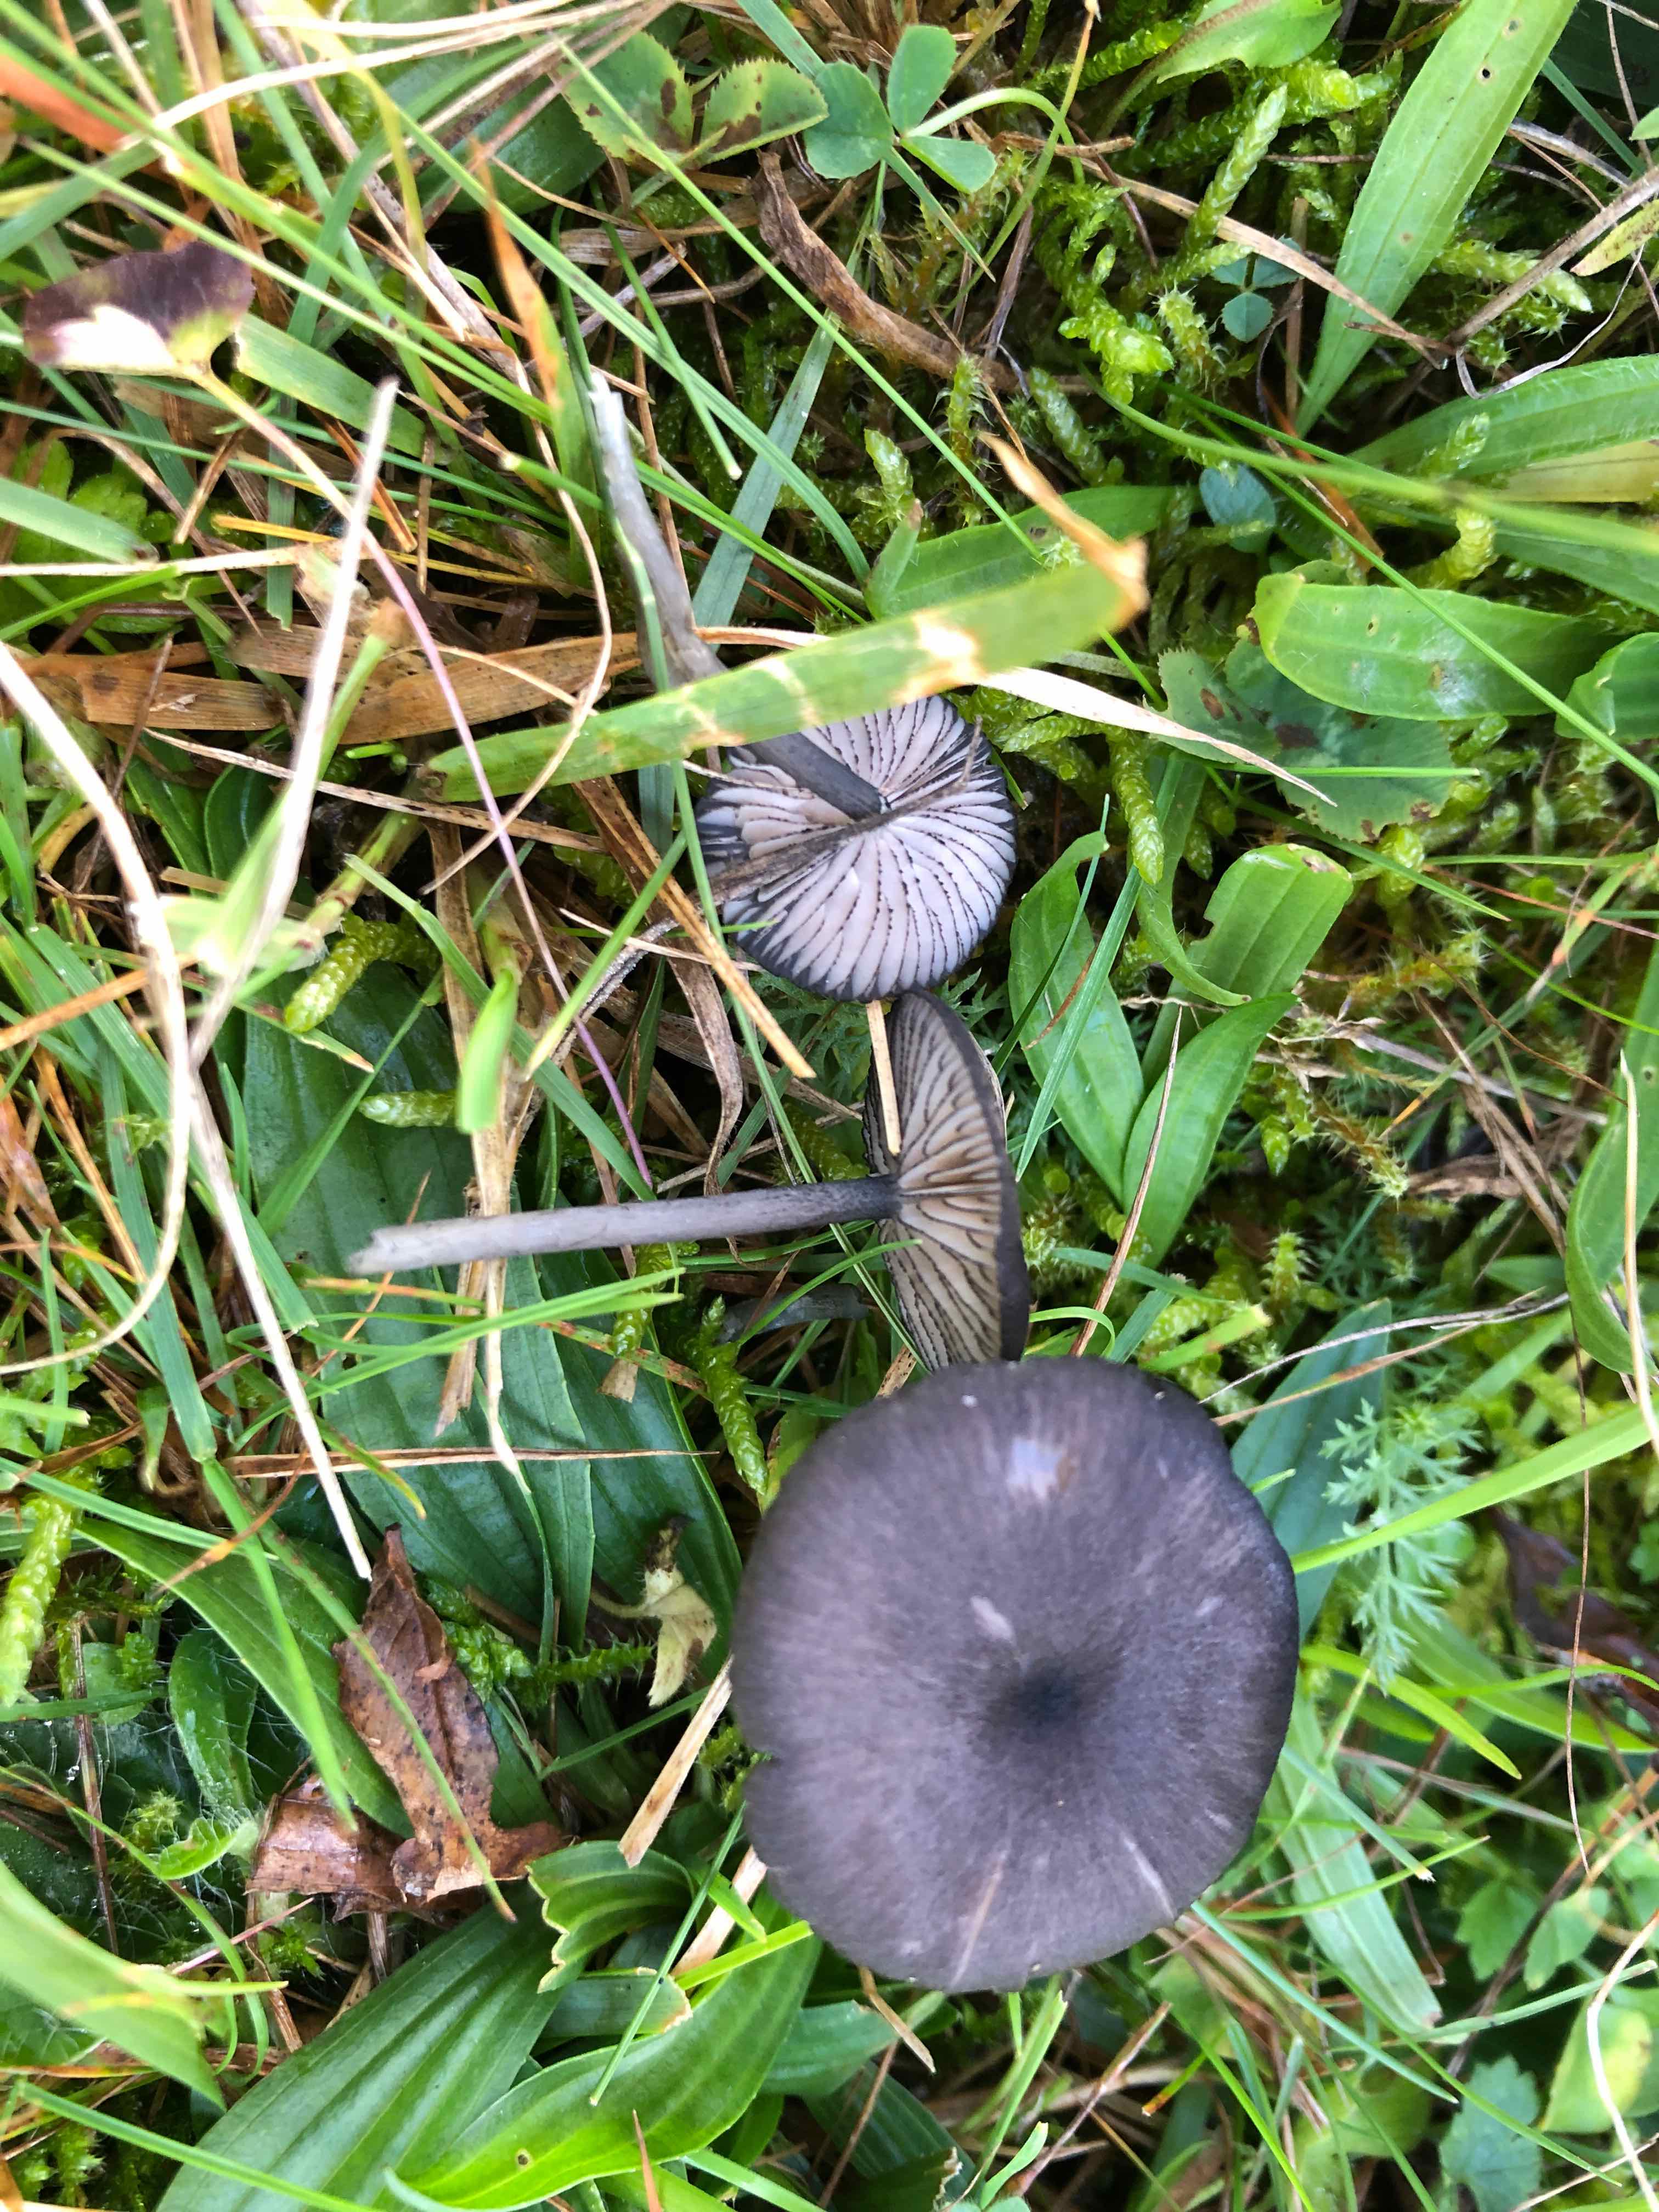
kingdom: Fungi
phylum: Basidiomycota
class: Agaricomycetes
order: Agaricales
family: Entolomataceae
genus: Entoloma
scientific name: Entoloma
